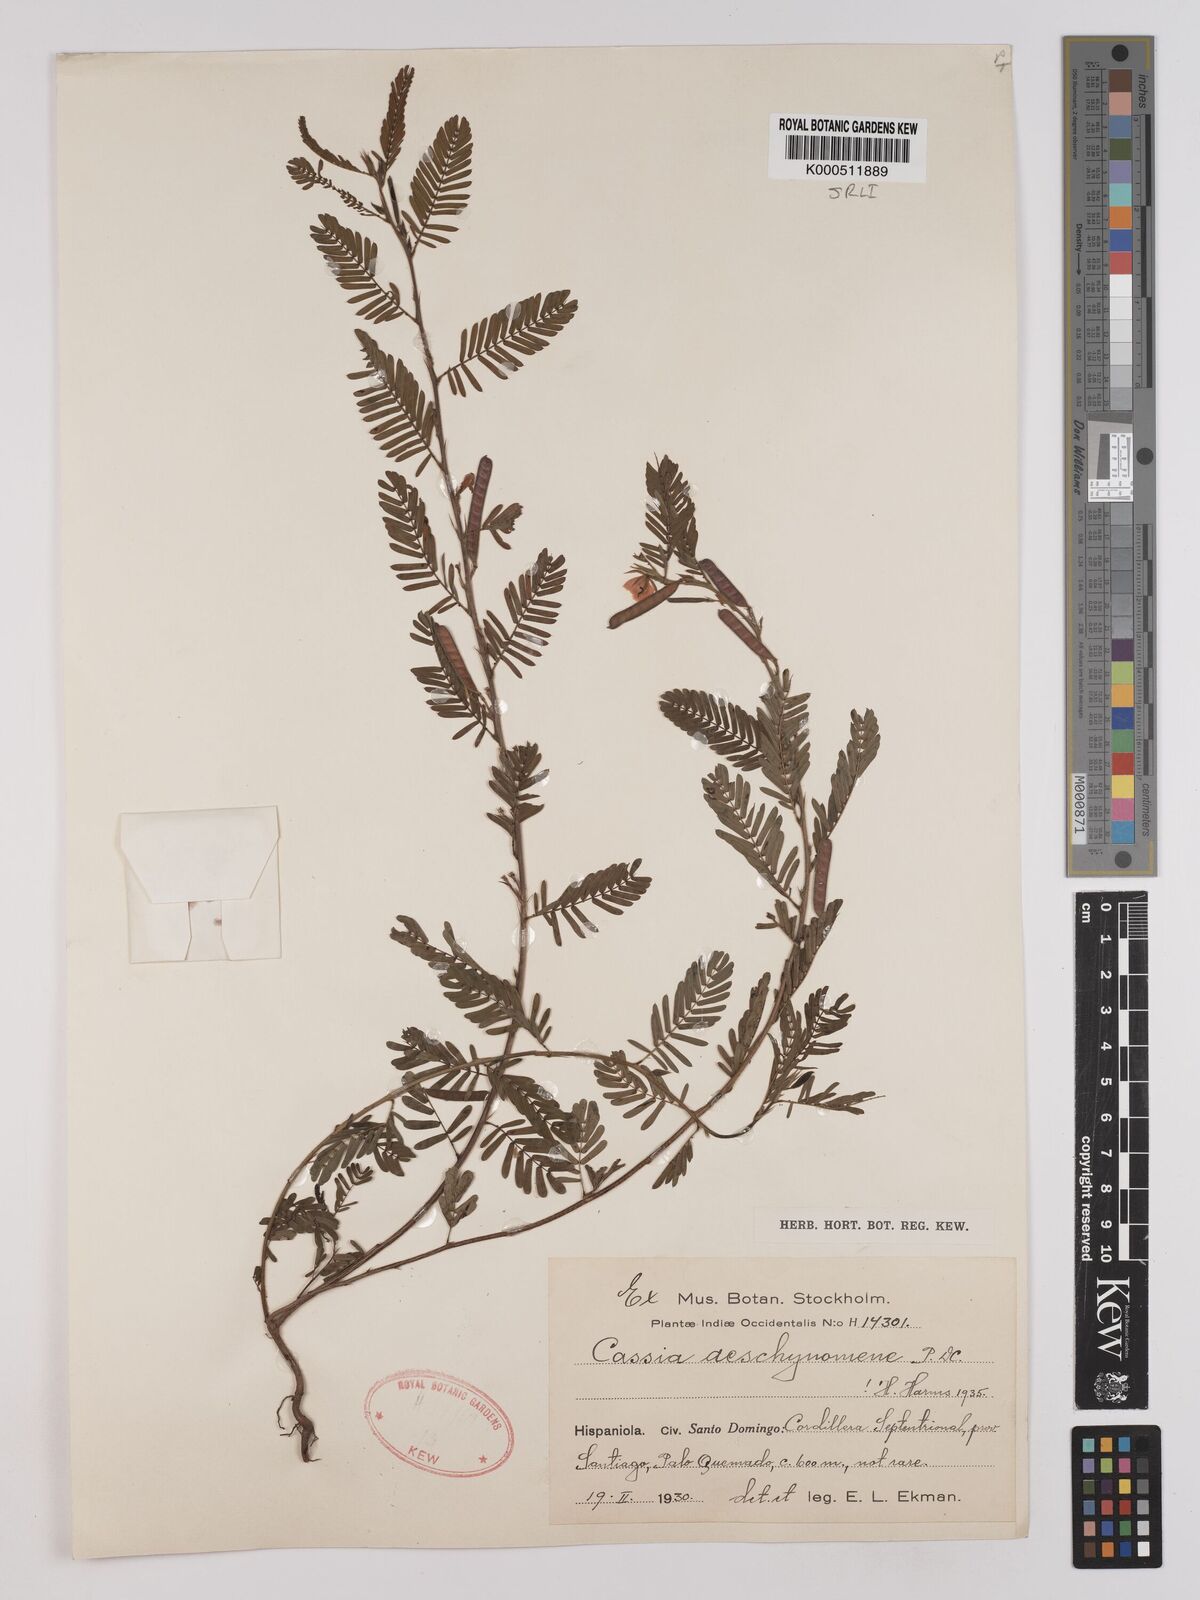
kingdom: Plantae
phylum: Tracheophyta
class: Magnoliopsida
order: Fabales
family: Fabaceae
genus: Chamaecrista
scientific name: Chamaecrista nictitans
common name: Sensitive cassia
